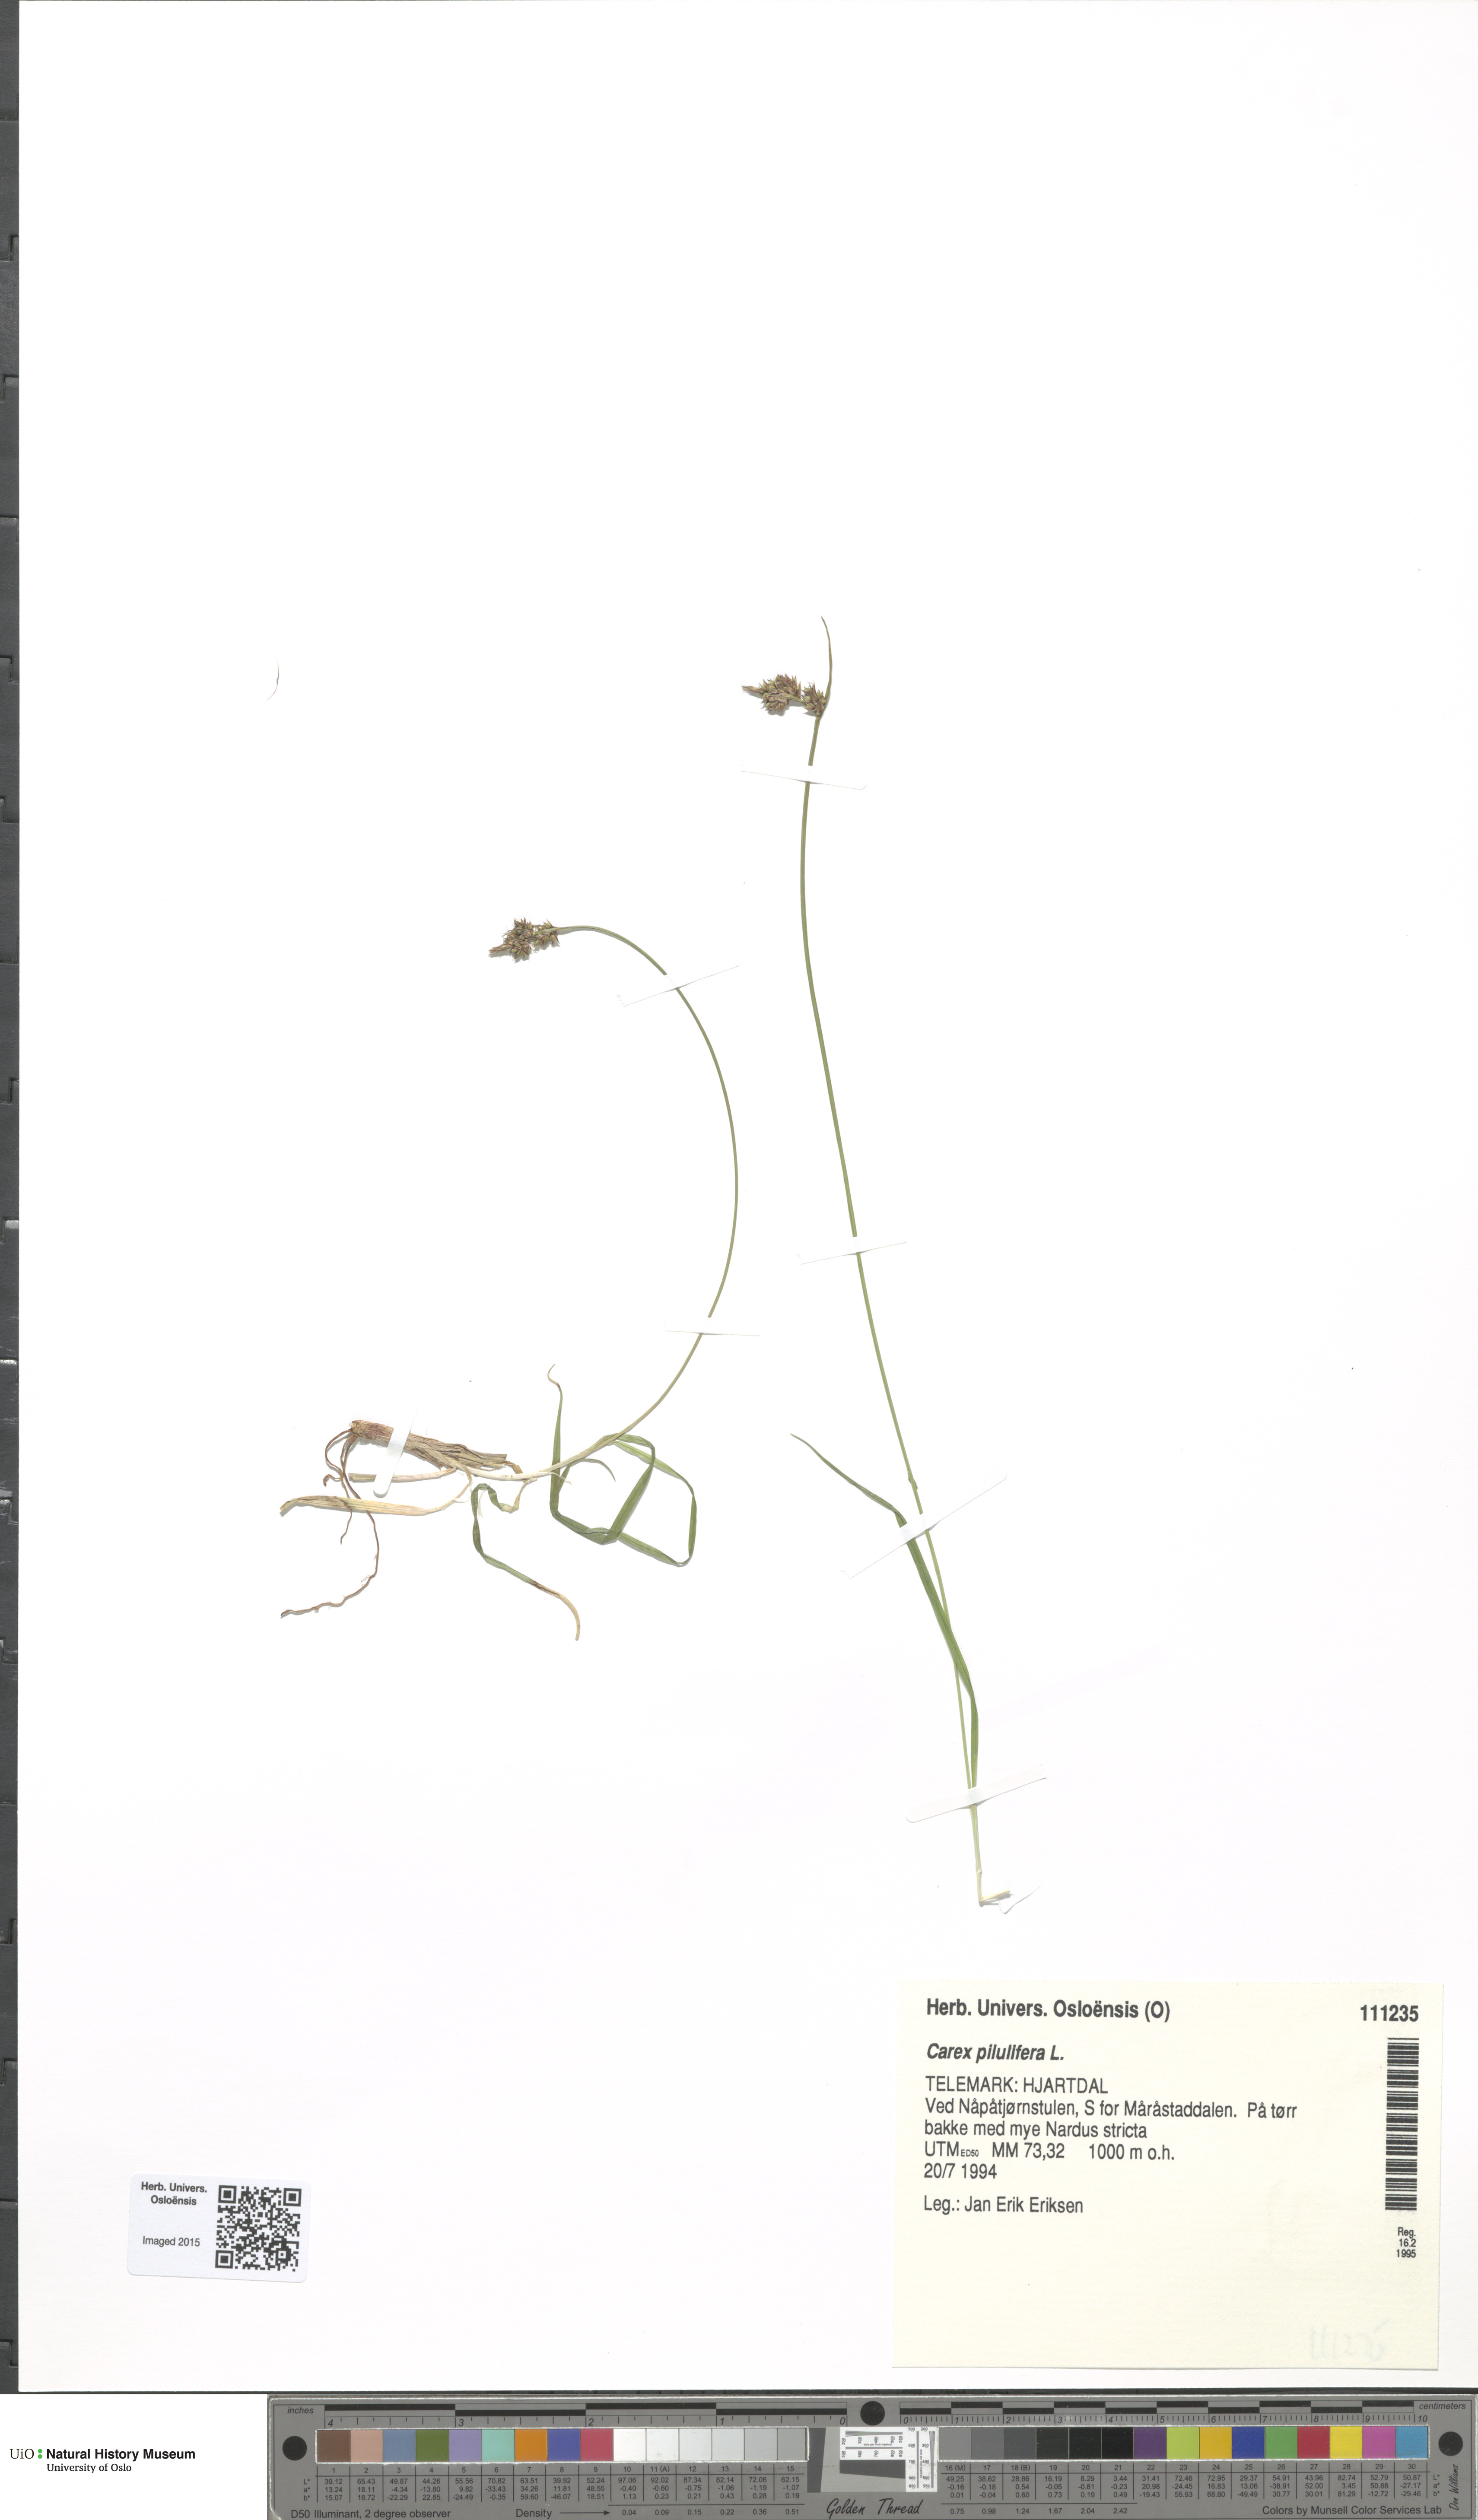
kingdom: Plantae
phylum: Tracheophyta
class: Liliopsida
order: Poales
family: Cyperaceae
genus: Carex
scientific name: Carex pilulifera
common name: Pill sedge
